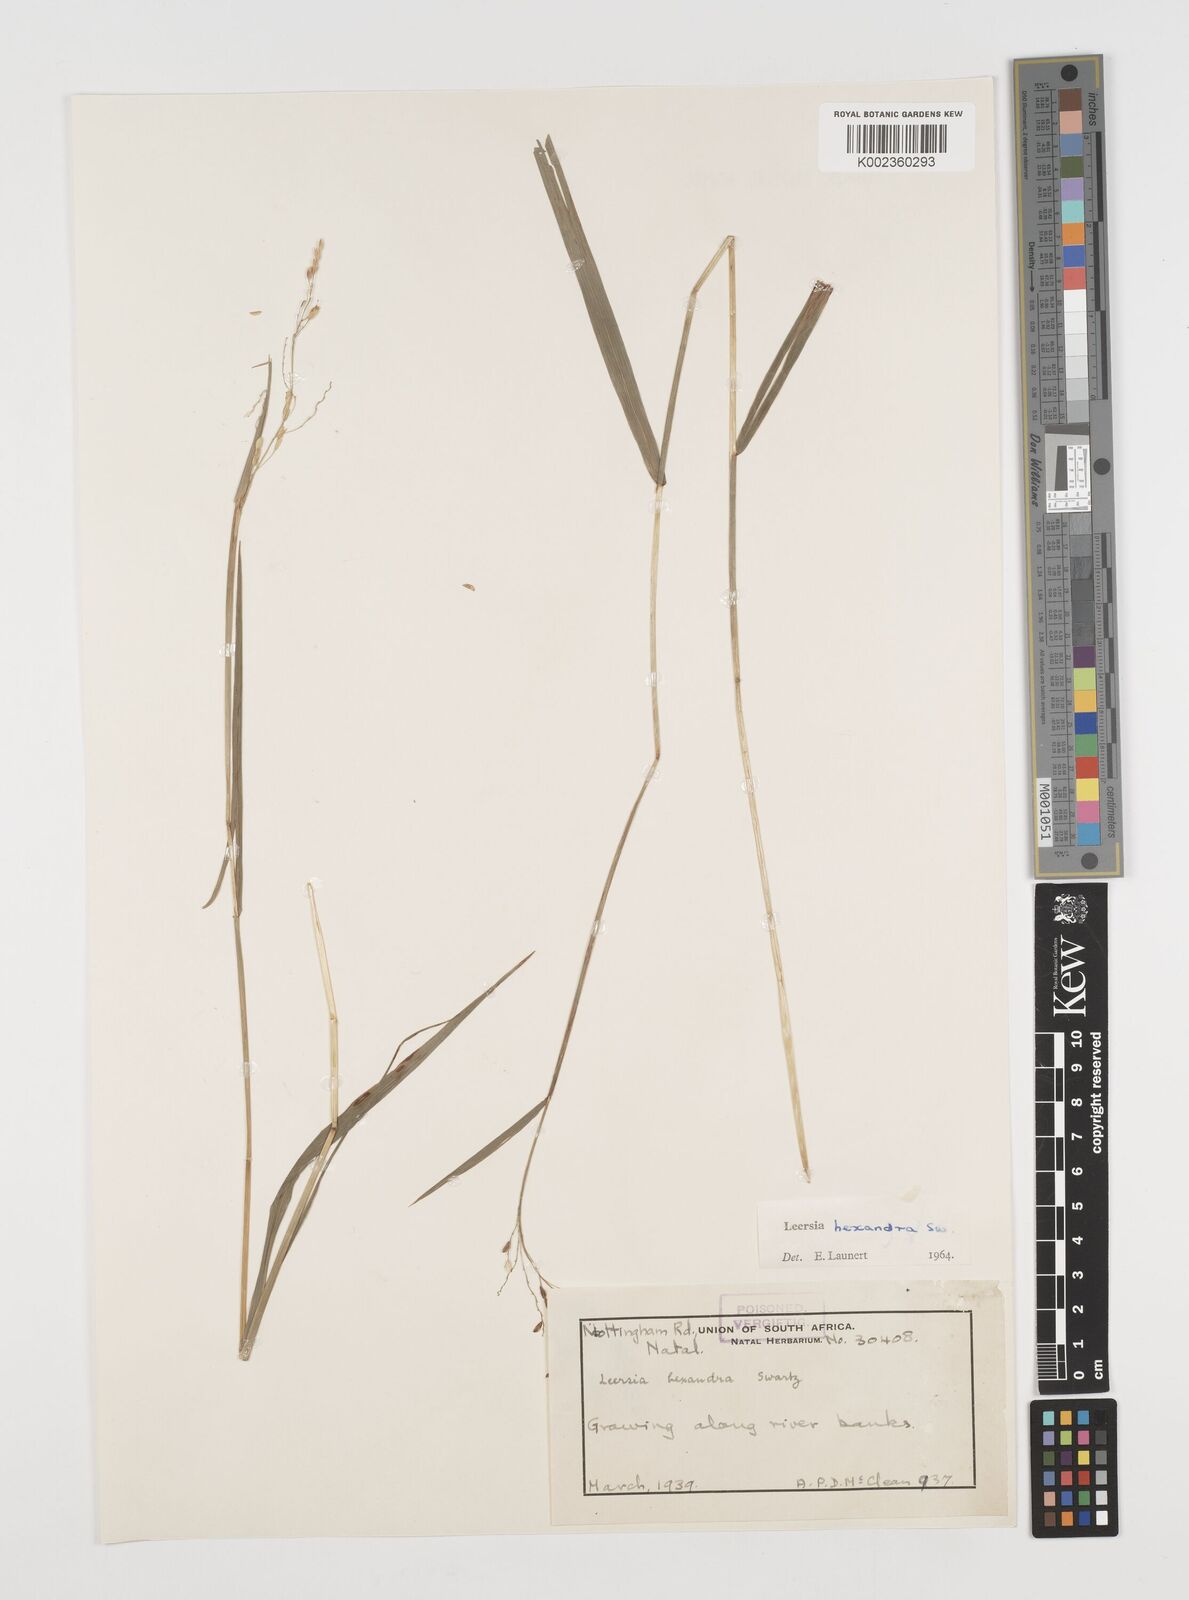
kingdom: Plantae
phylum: Tracheophyta
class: Liliopsida
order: Poales
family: Poaceae
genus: Leersia
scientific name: Leersia hexandra
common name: Southern cut grass
